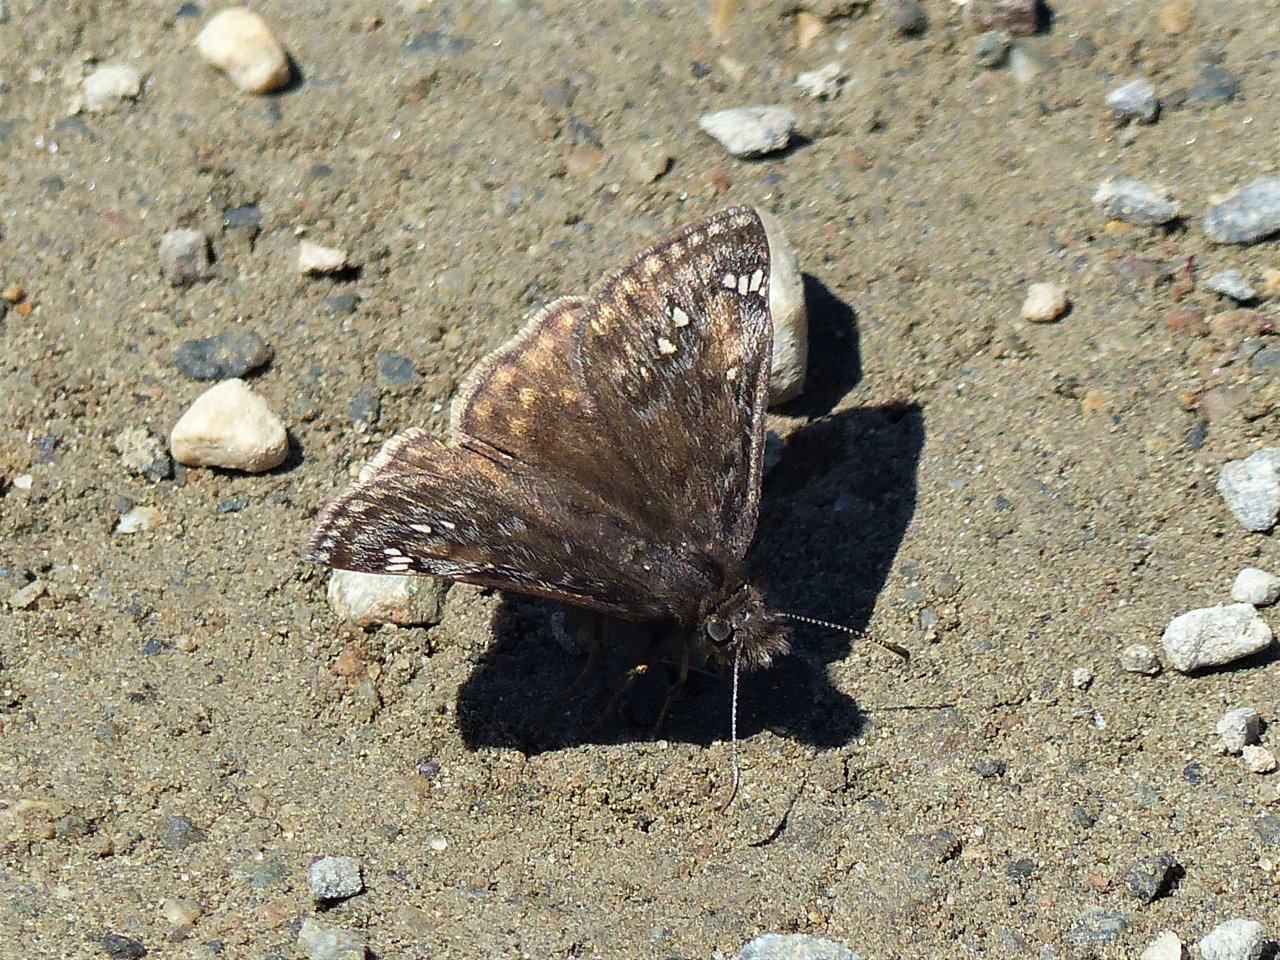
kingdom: Animalia
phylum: Arthropoda
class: Insecta
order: Lepidoptera
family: Hesperiidae
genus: Gesta
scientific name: Gesta
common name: Juvenal's Duskywing
